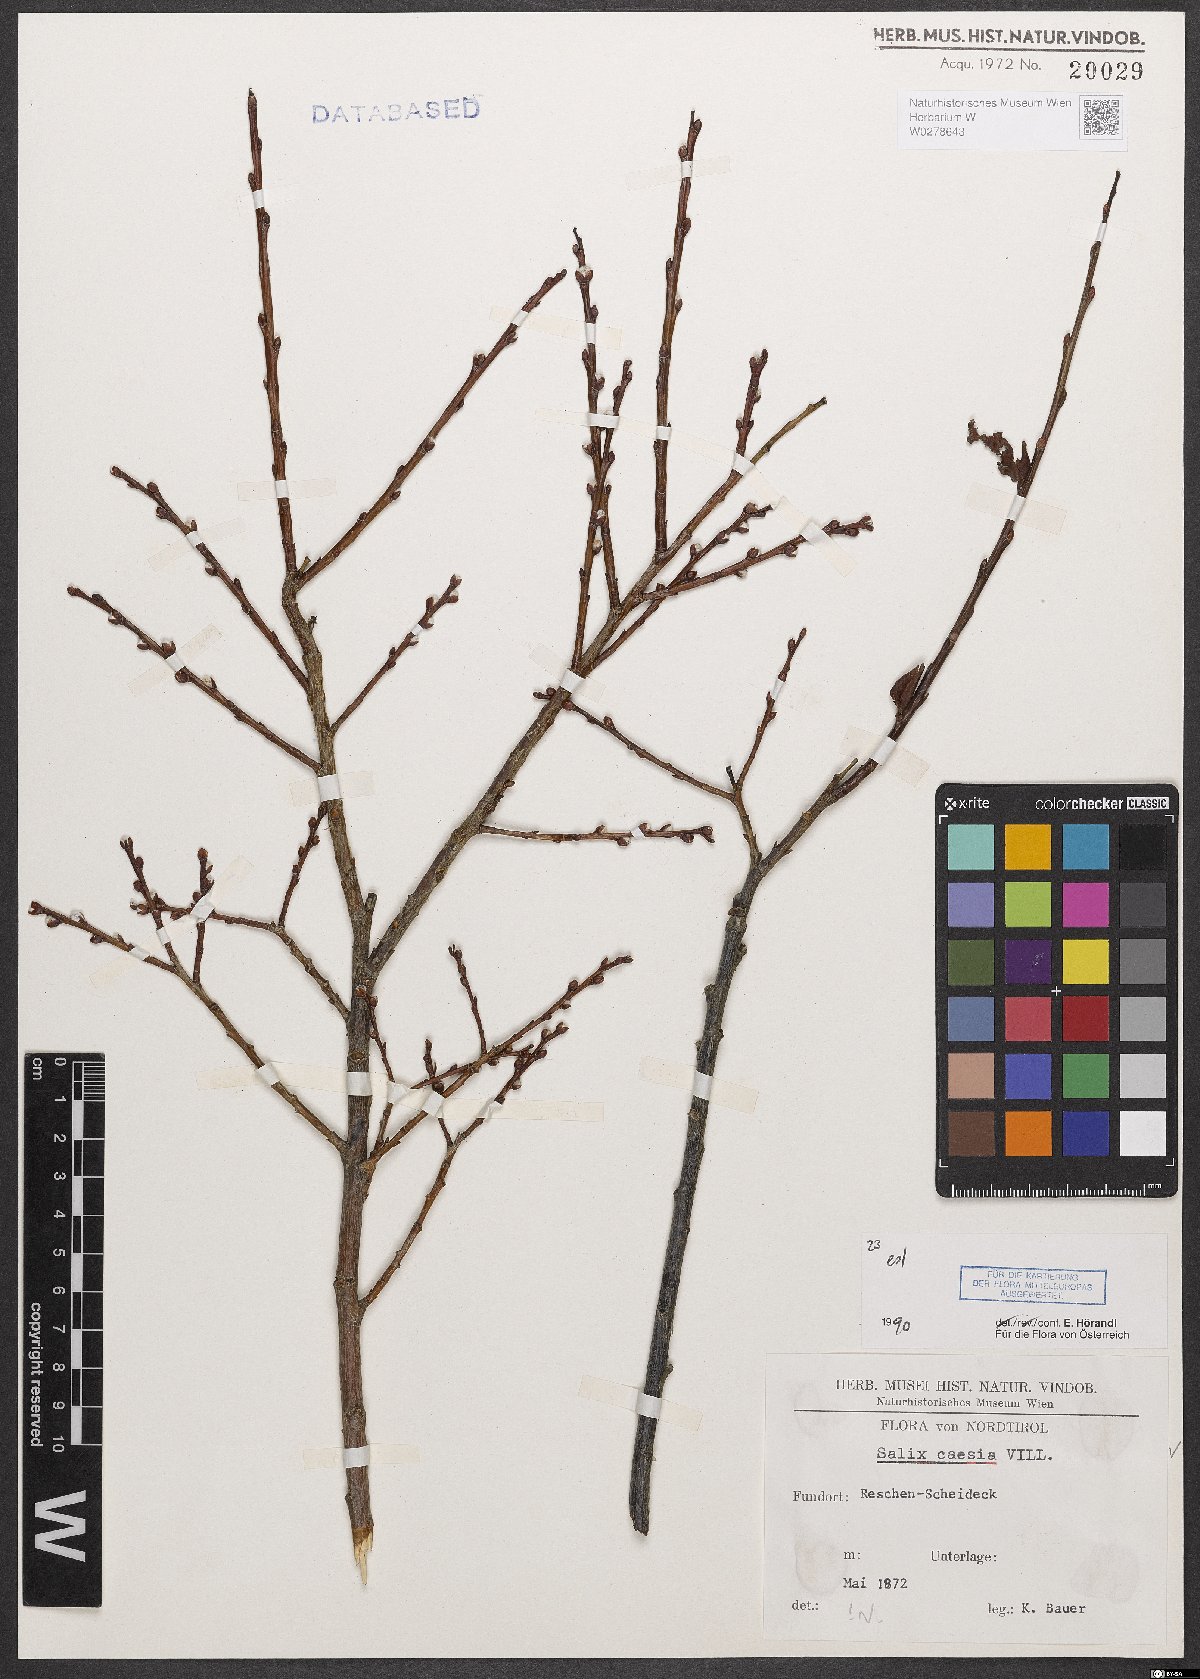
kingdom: Plantae
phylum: Tracheophyta
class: Magnoliopsida
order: Malpighiales
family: Salicaceae
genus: Salix
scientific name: Salix caesia
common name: Blue willow
